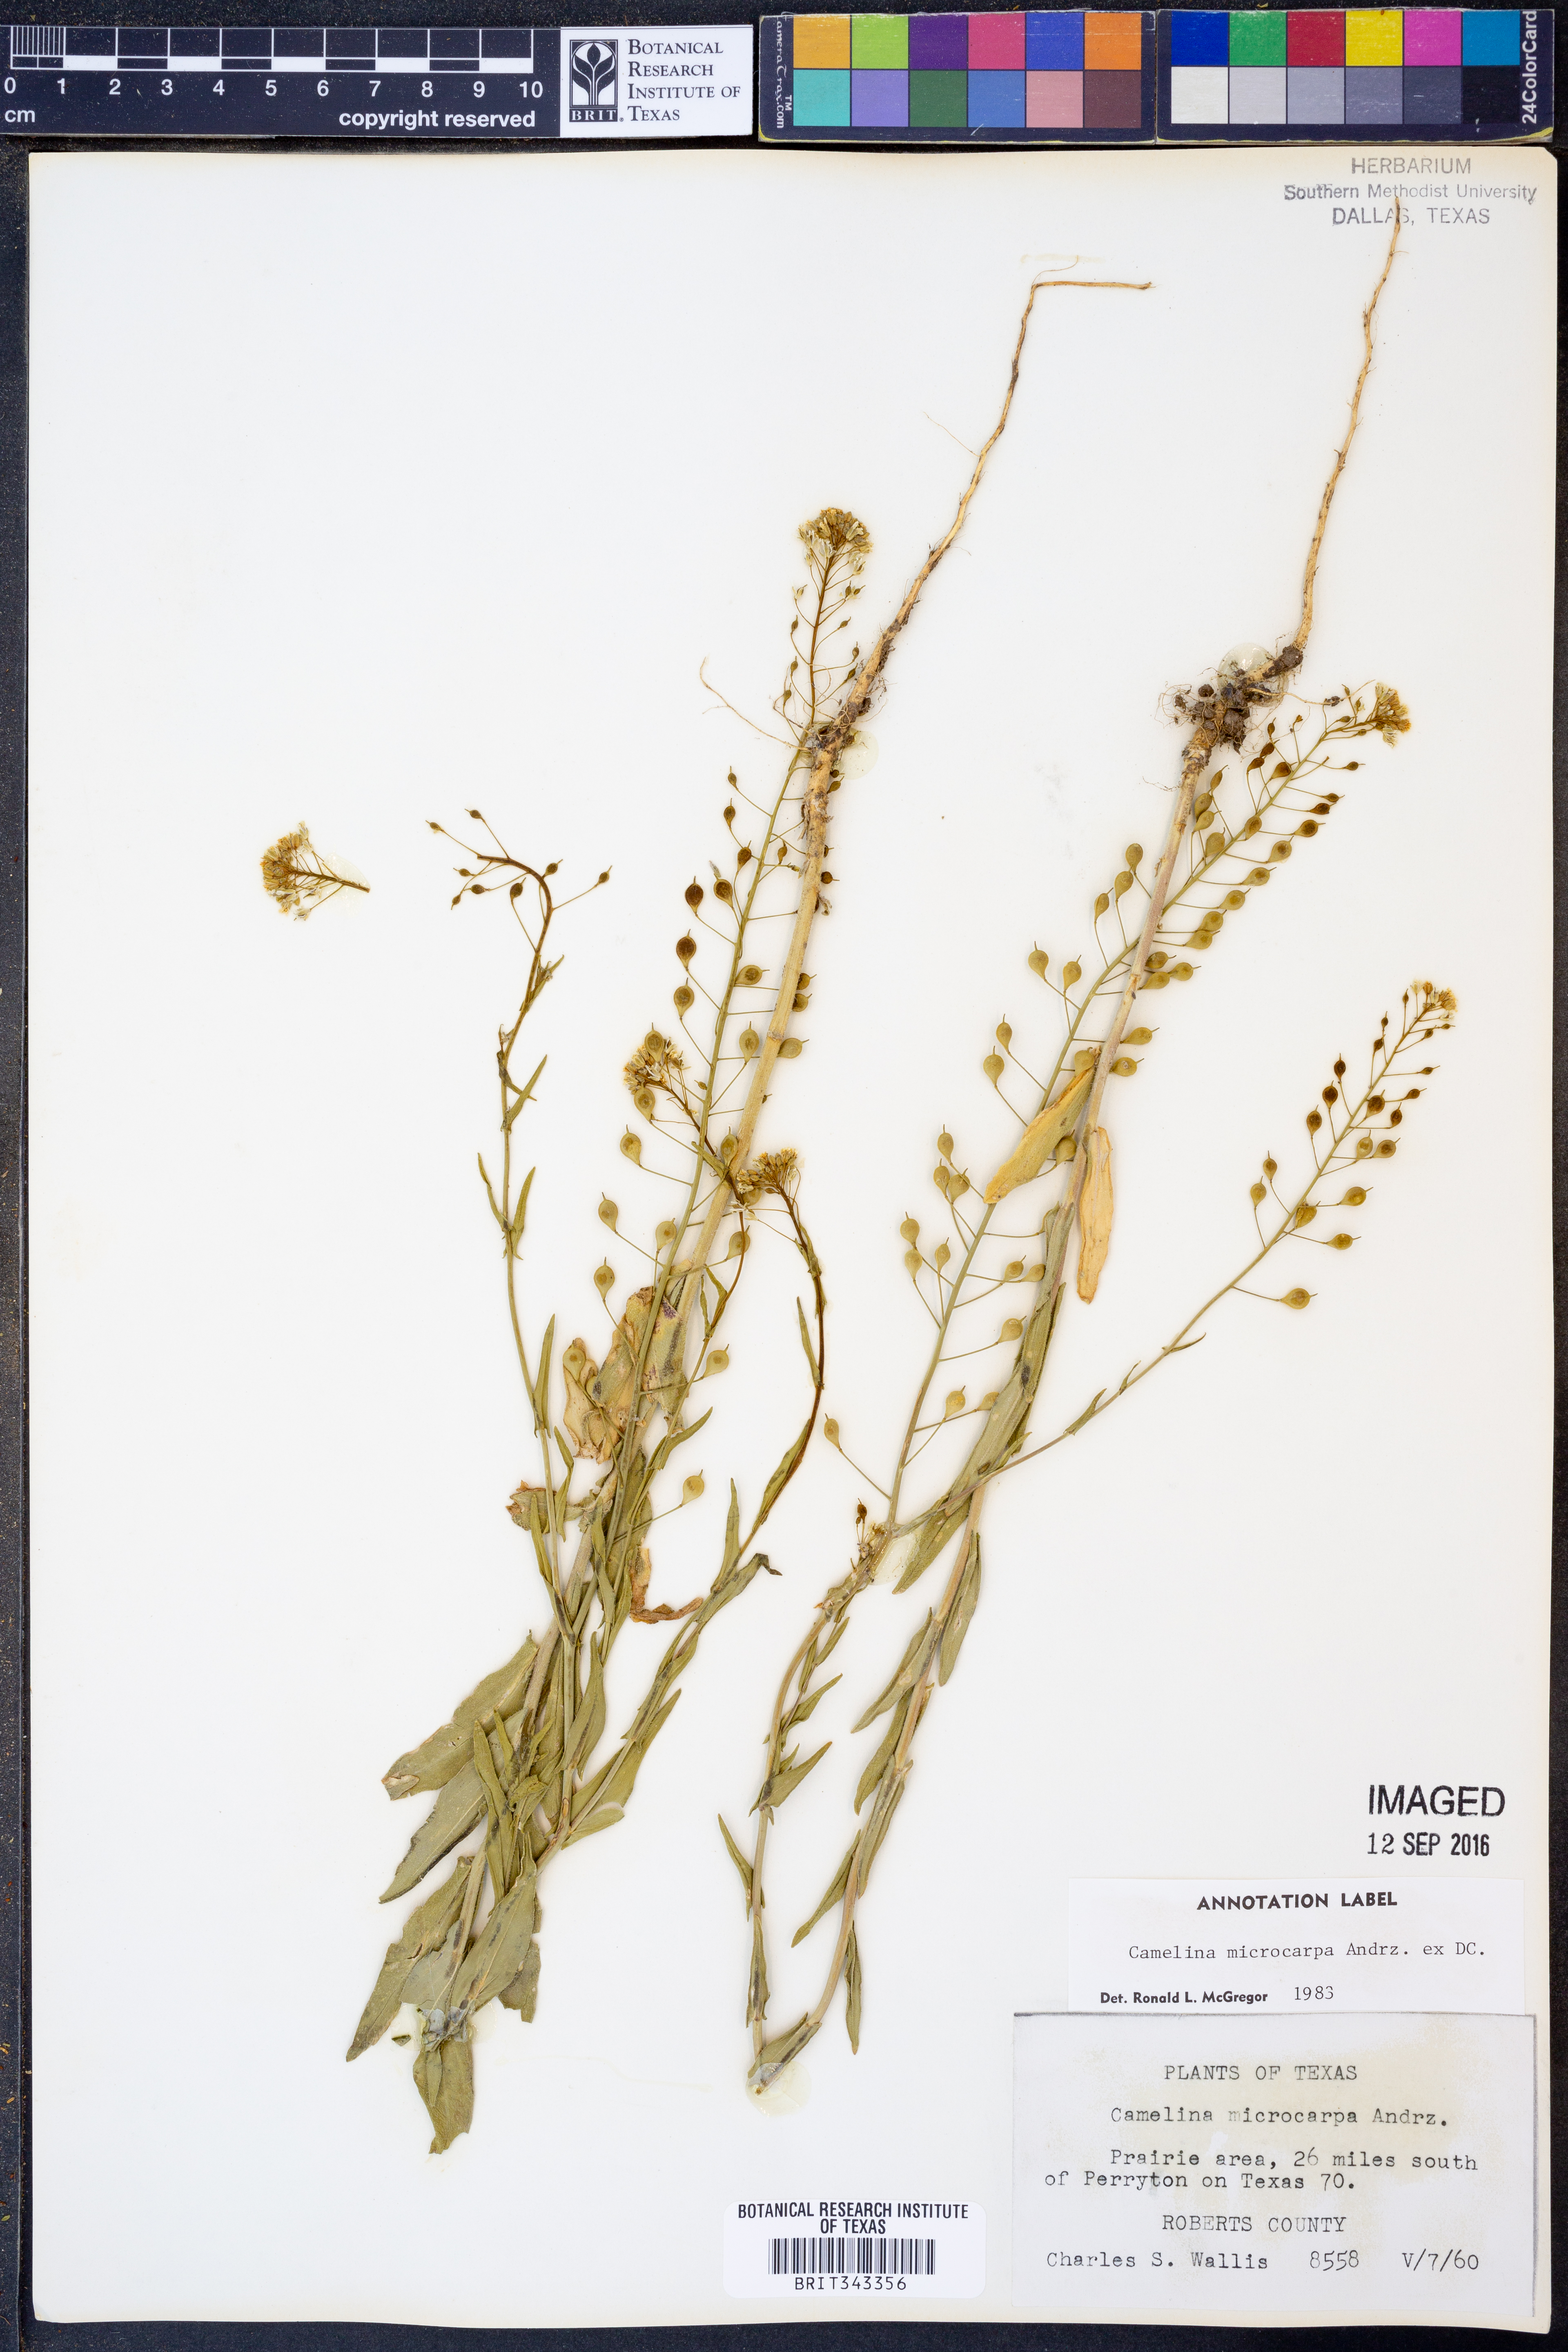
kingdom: Plantae
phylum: Tracheophyta
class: Magnoliopsida
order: Brassicales
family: Brassicaceae
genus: Camelina
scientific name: Camelina microcarpa
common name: Lesser gold-of-pleasure
